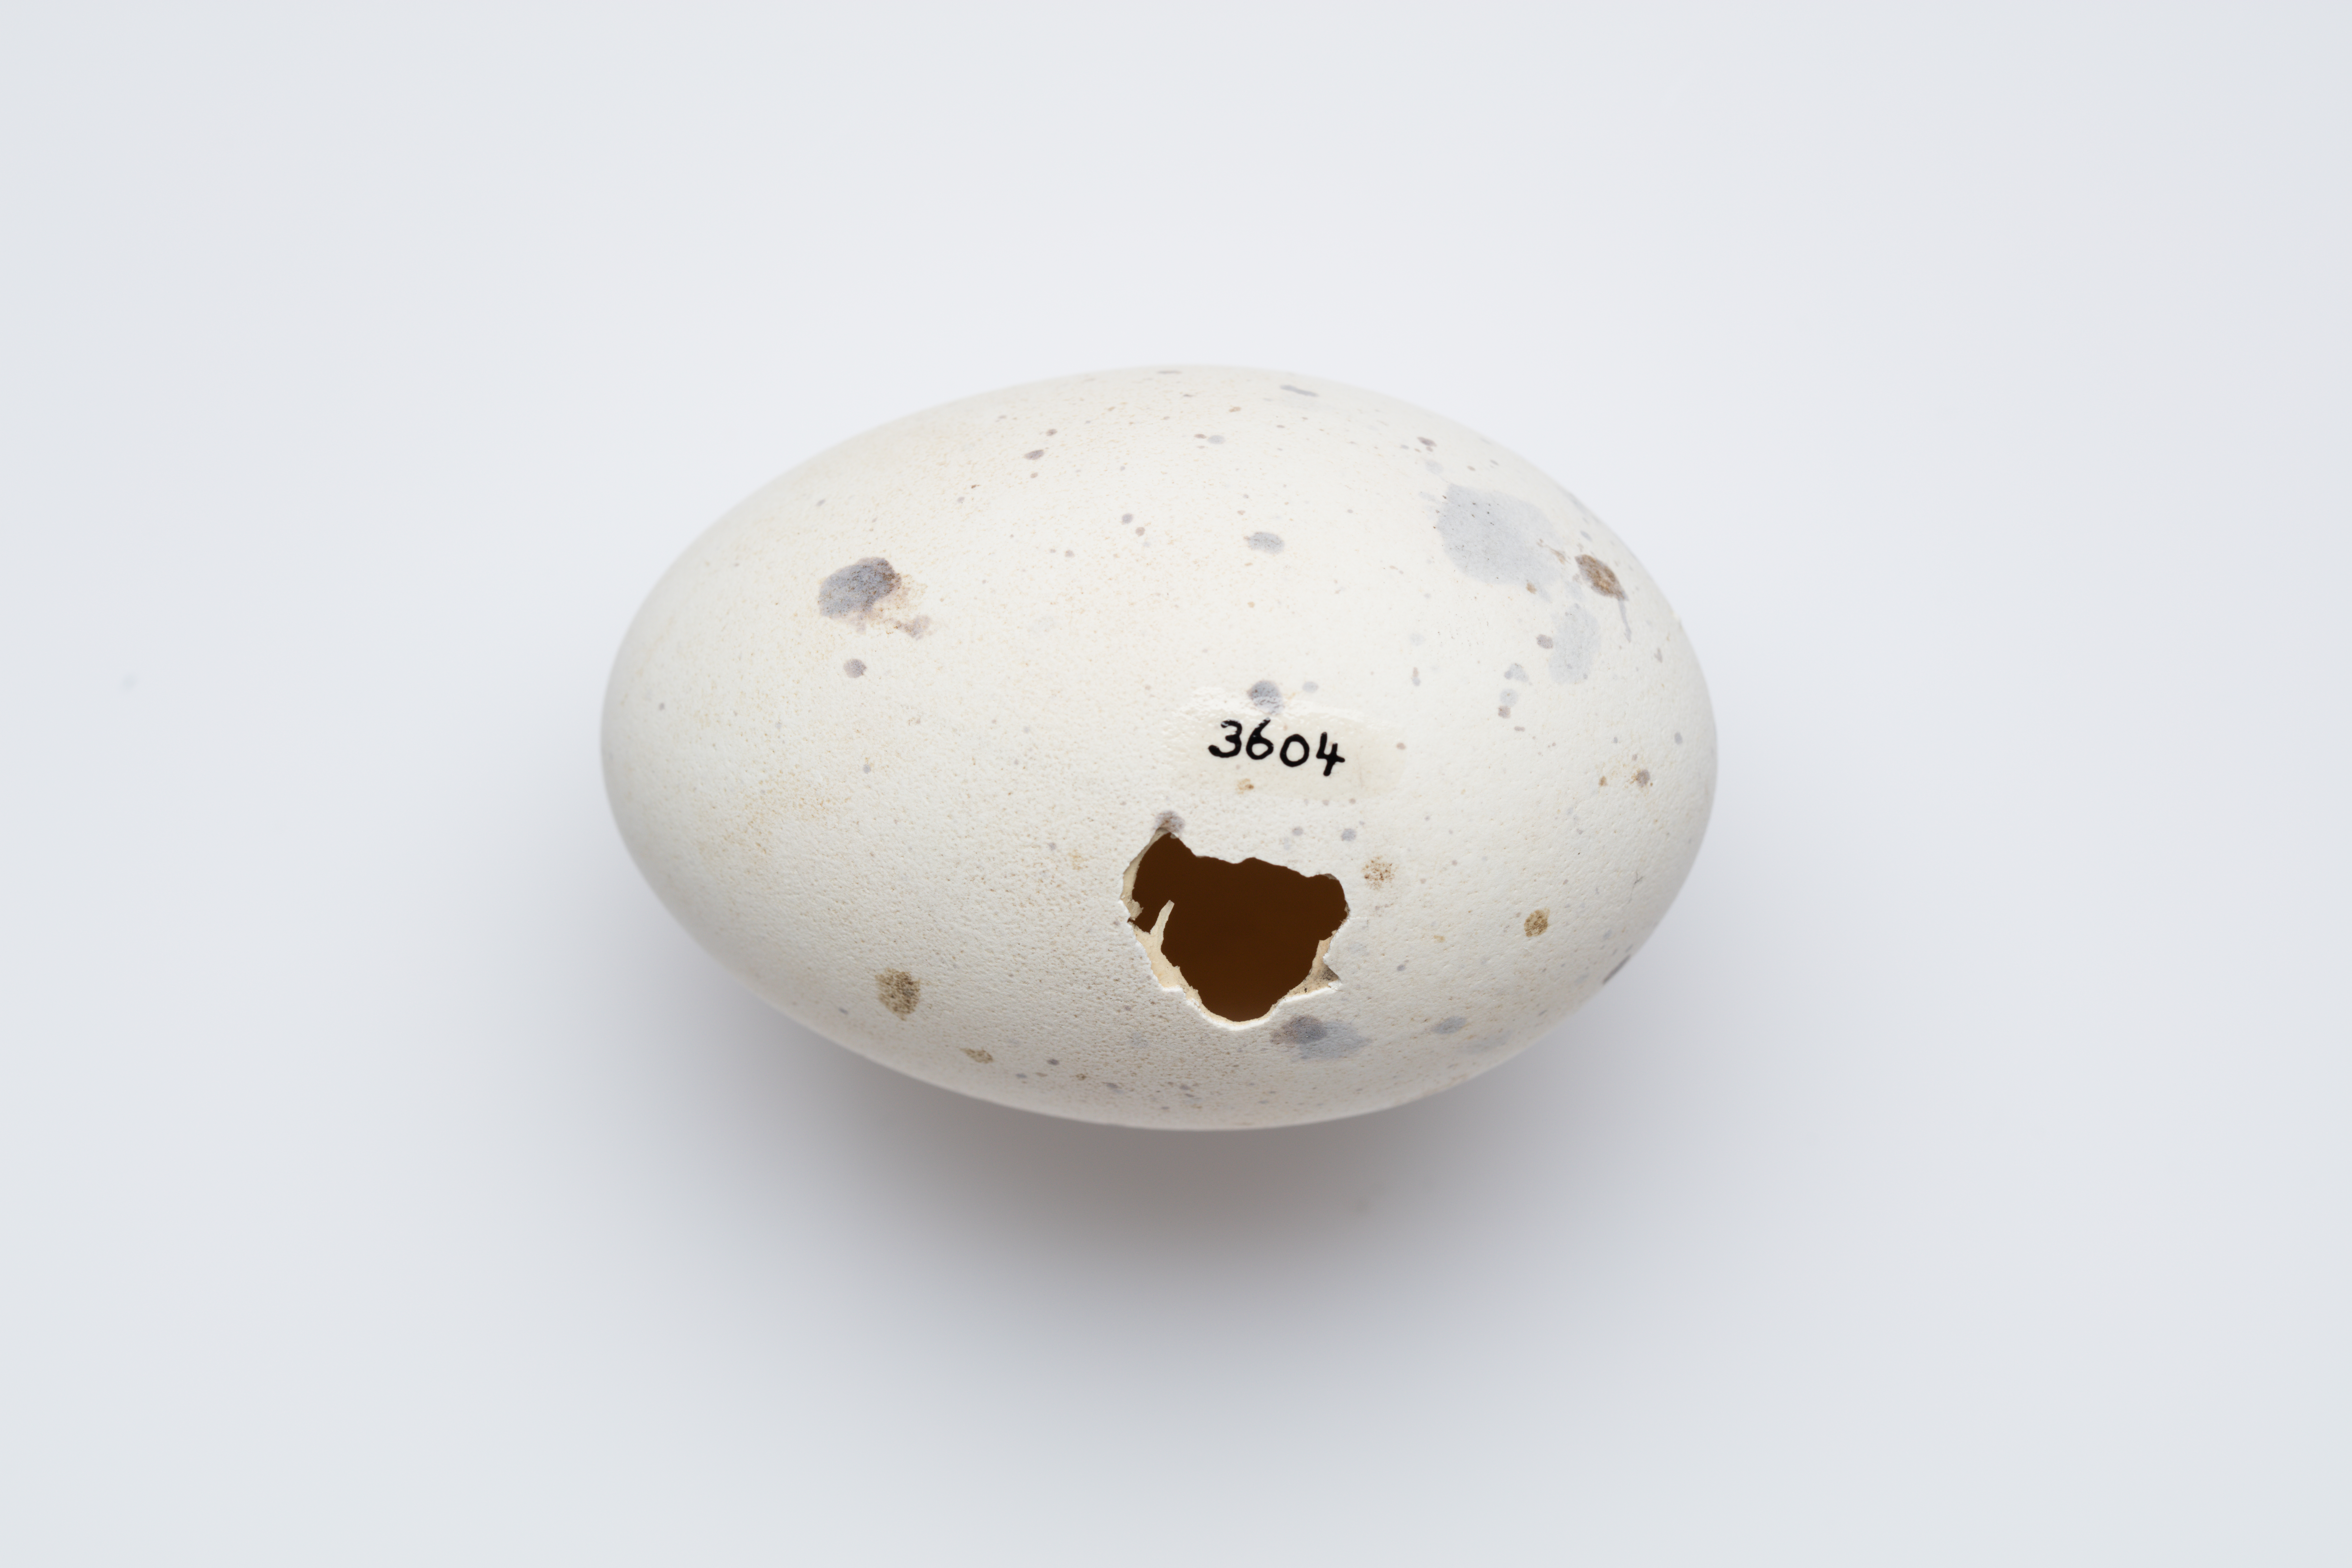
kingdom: Animalia
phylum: Chordata
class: Aves
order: Gruiformes
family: Rallidae
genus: Porphyrio
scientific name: Porphyrio hochstetteri
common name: South island takahe
